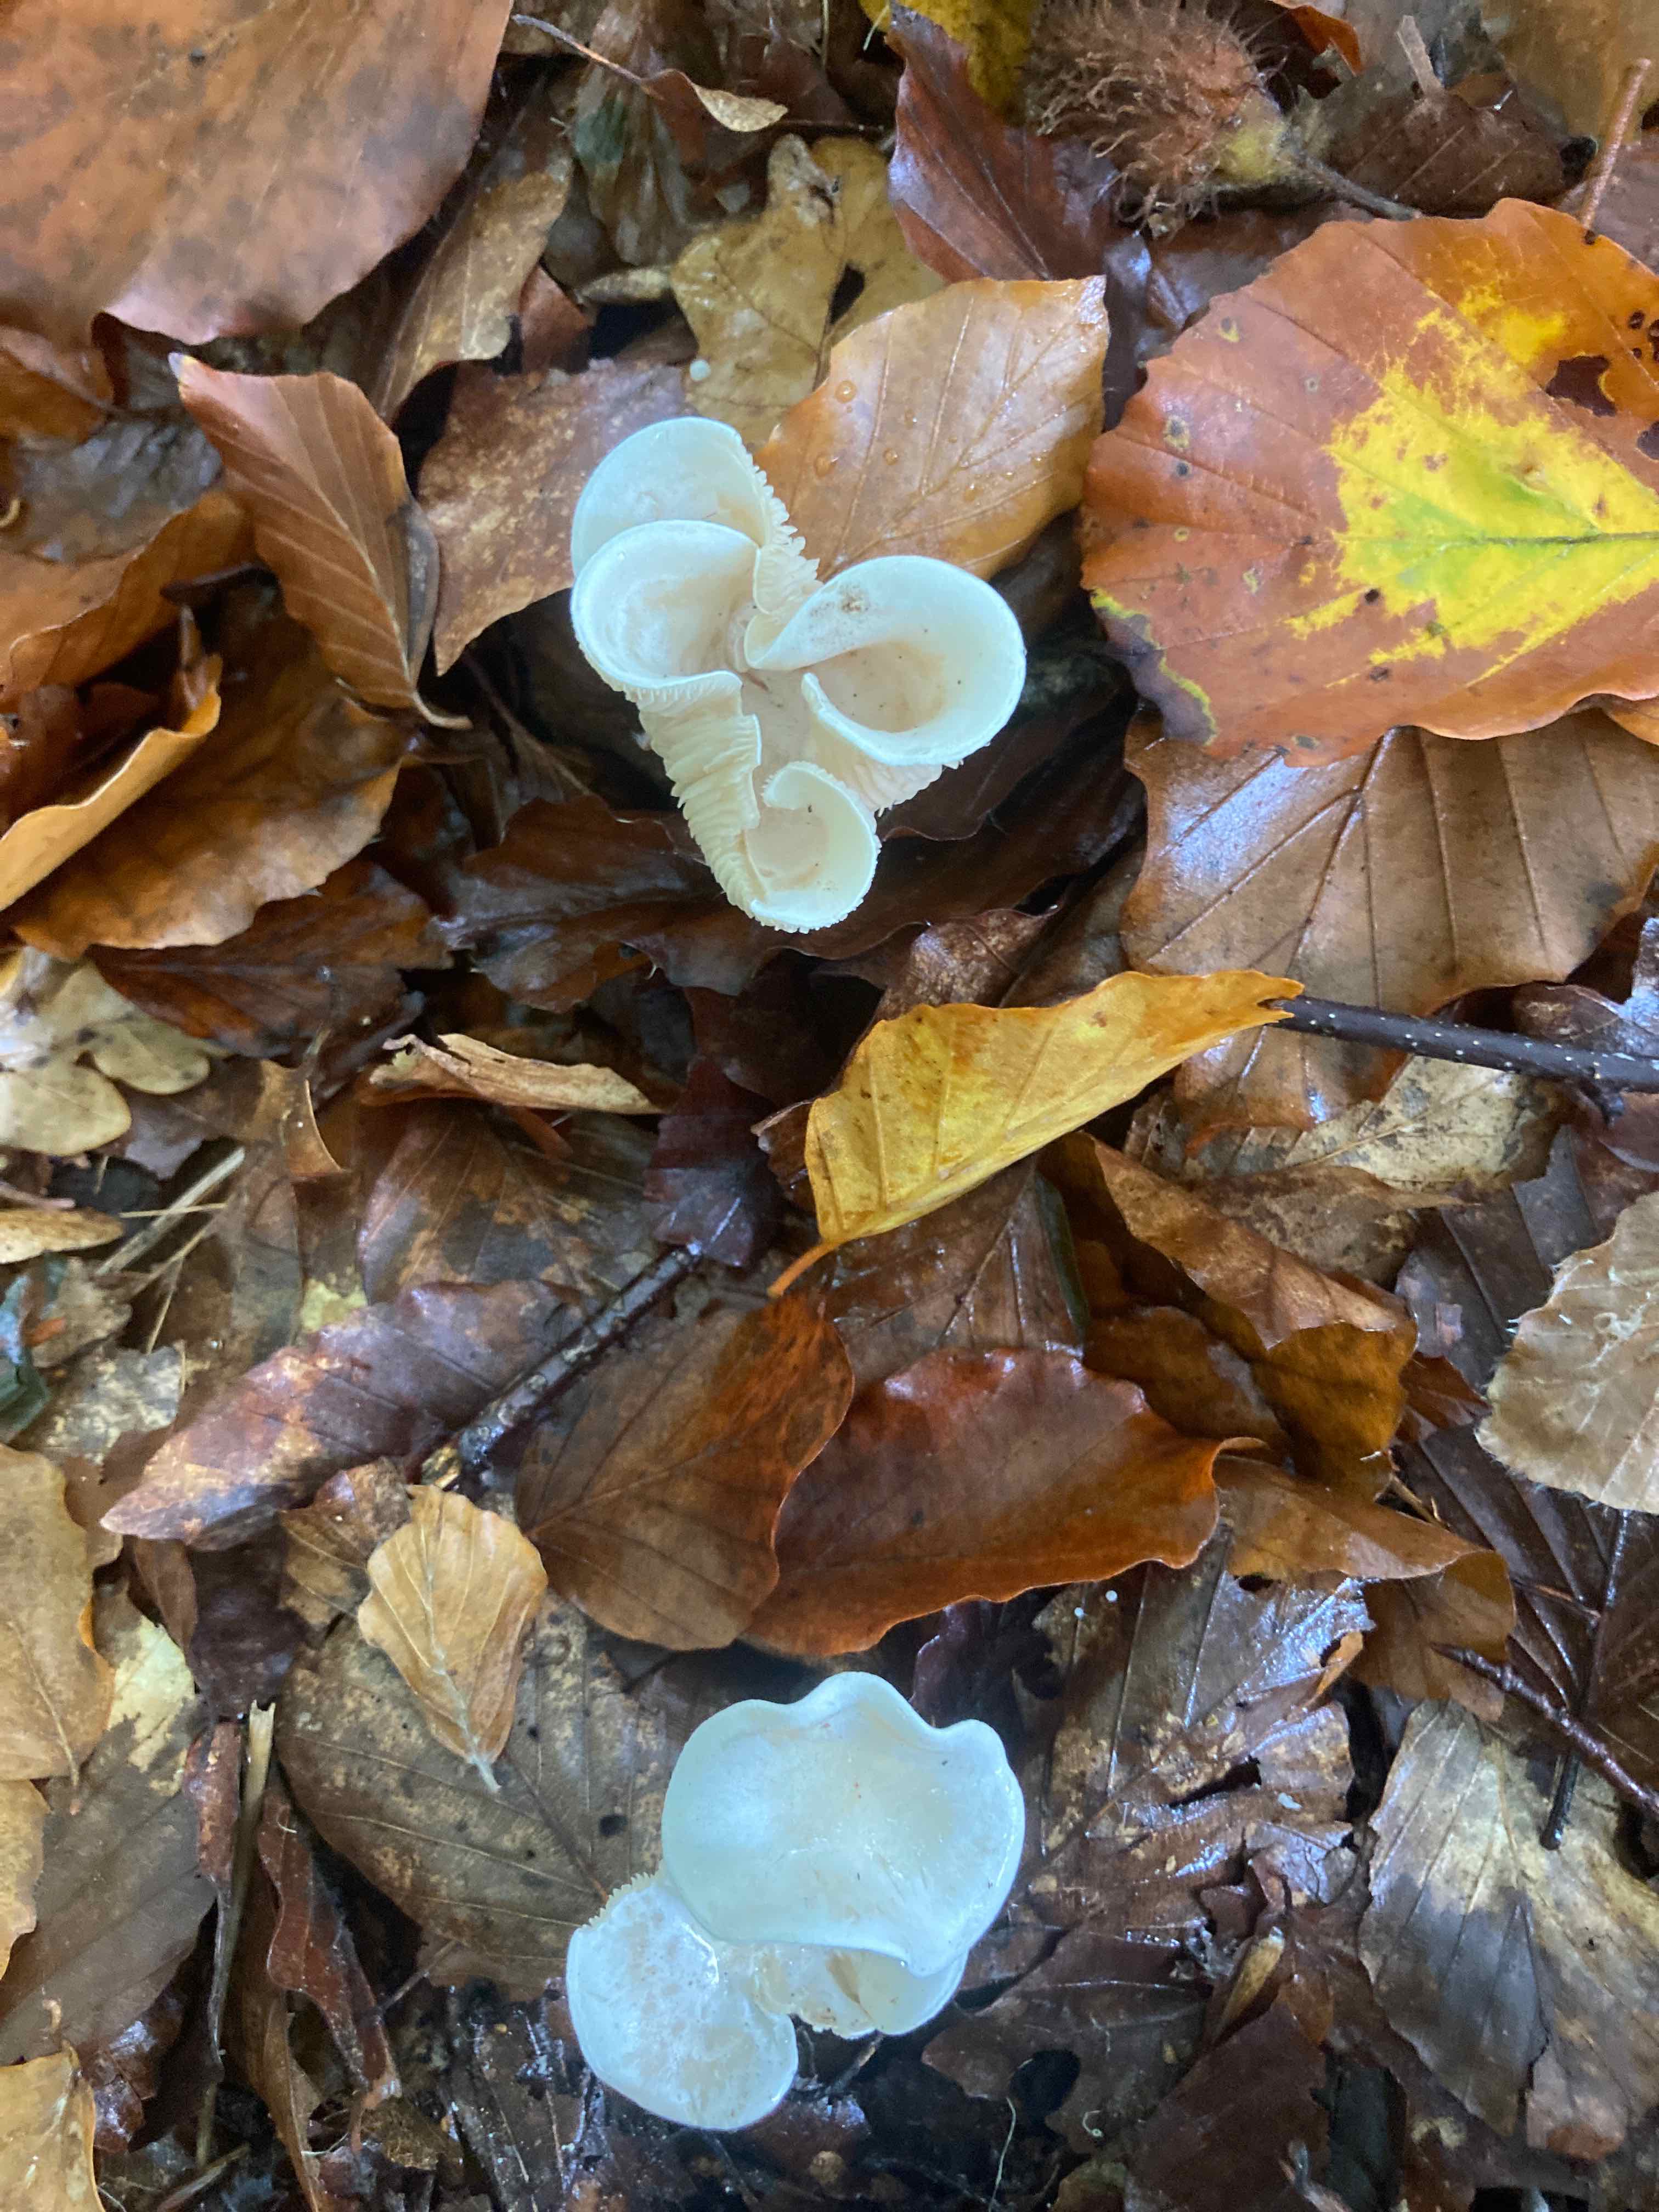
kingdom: Fungi
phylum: Basidiomycota
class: Agaricomycetes
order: Agaricales
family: Tricholomataceae
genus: Clitocybe
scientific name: Clitocybe
